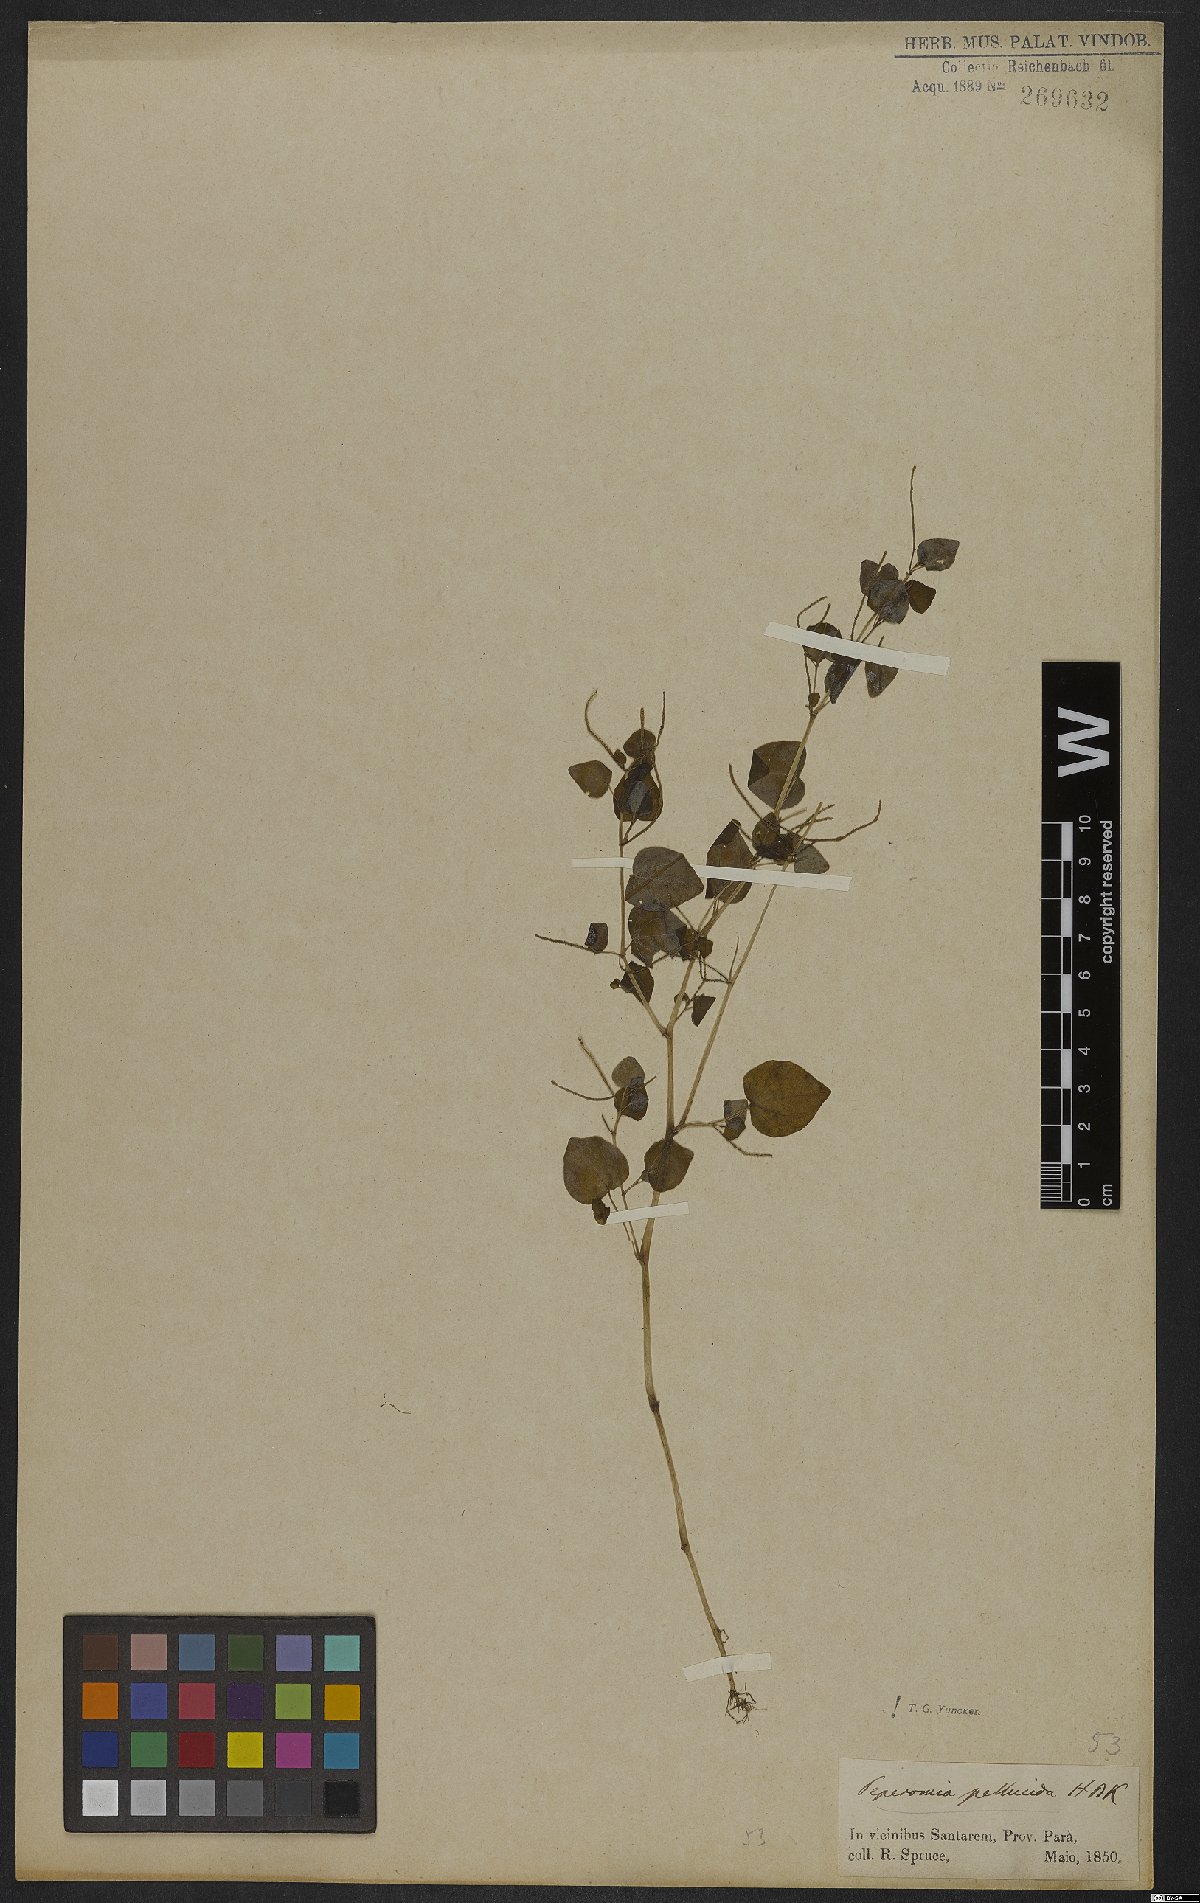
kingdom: Plantae
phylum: Tracheophyta
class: Magnoliopsida
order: Piperales
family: Piperaceae
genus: Peperomia
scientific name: Peperomia pellucida
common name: Man to man
